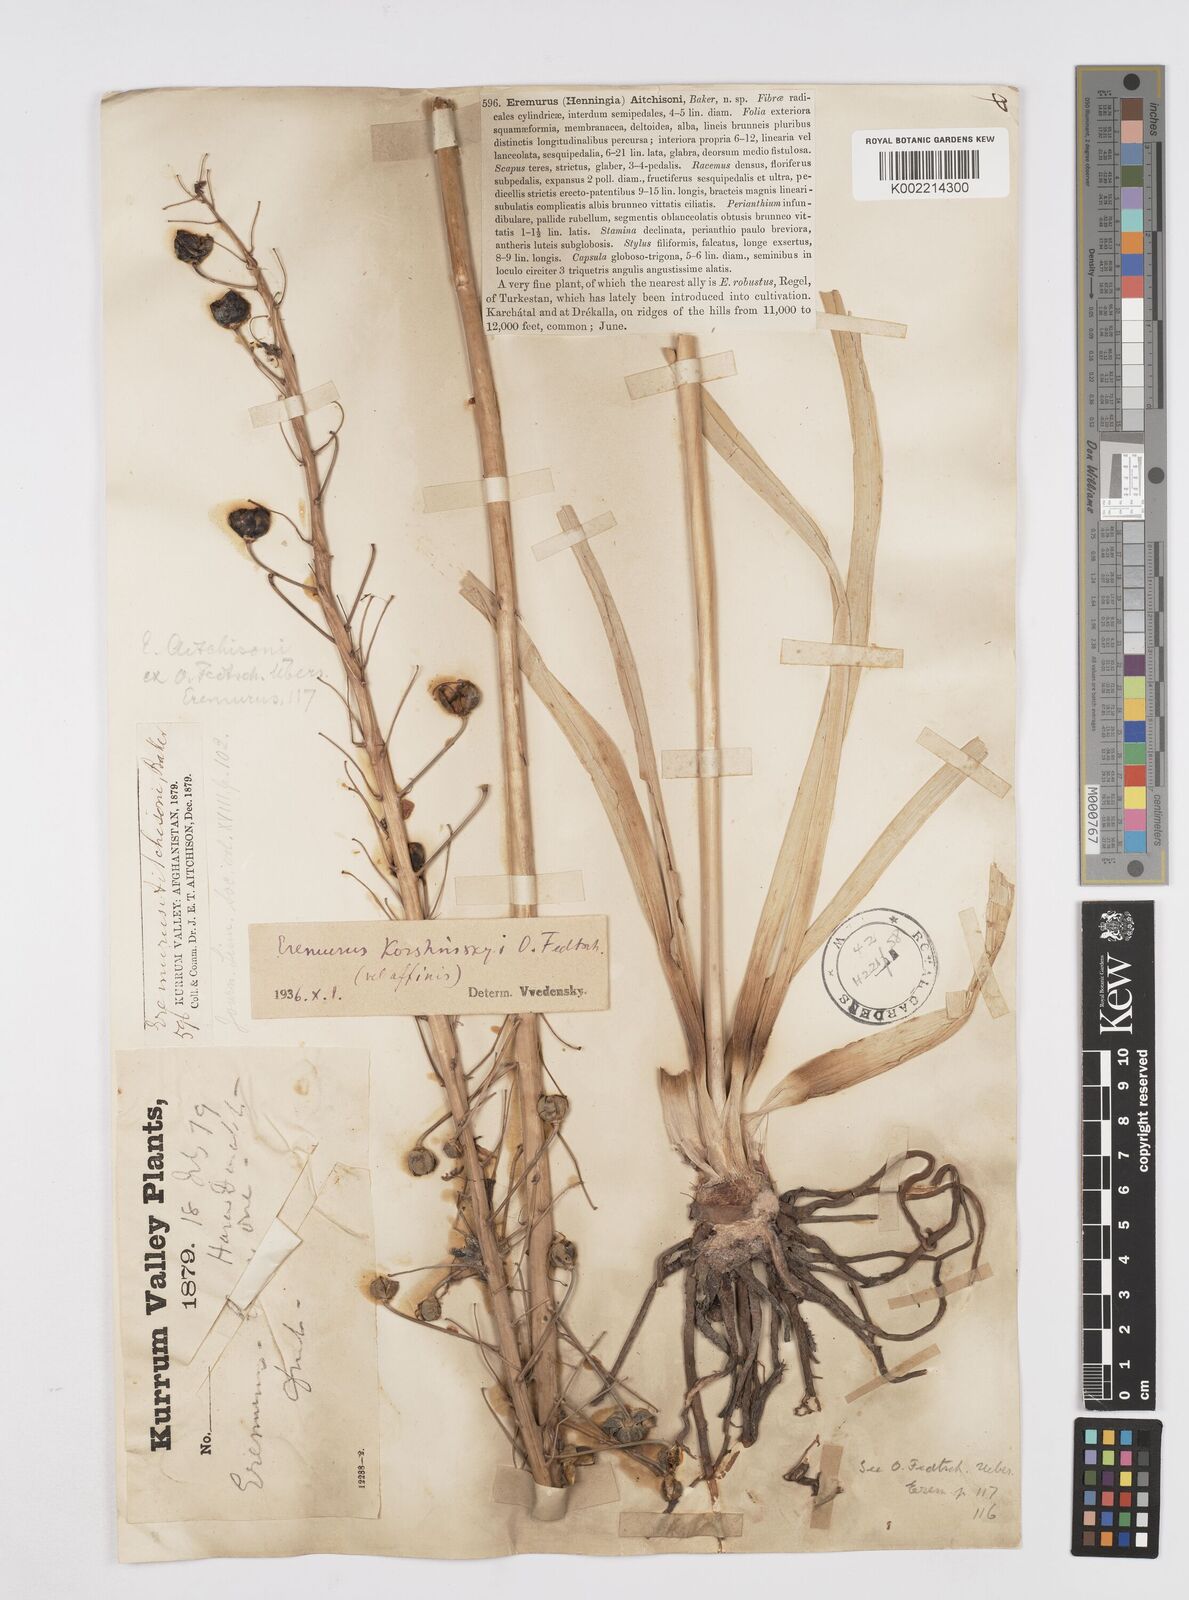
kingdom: Plantae
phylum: Tracheophyta
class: Liliopsida
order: Asparagales
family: Asphodelaceae
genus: Eremurus
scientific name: Eremurus aitchisonii
